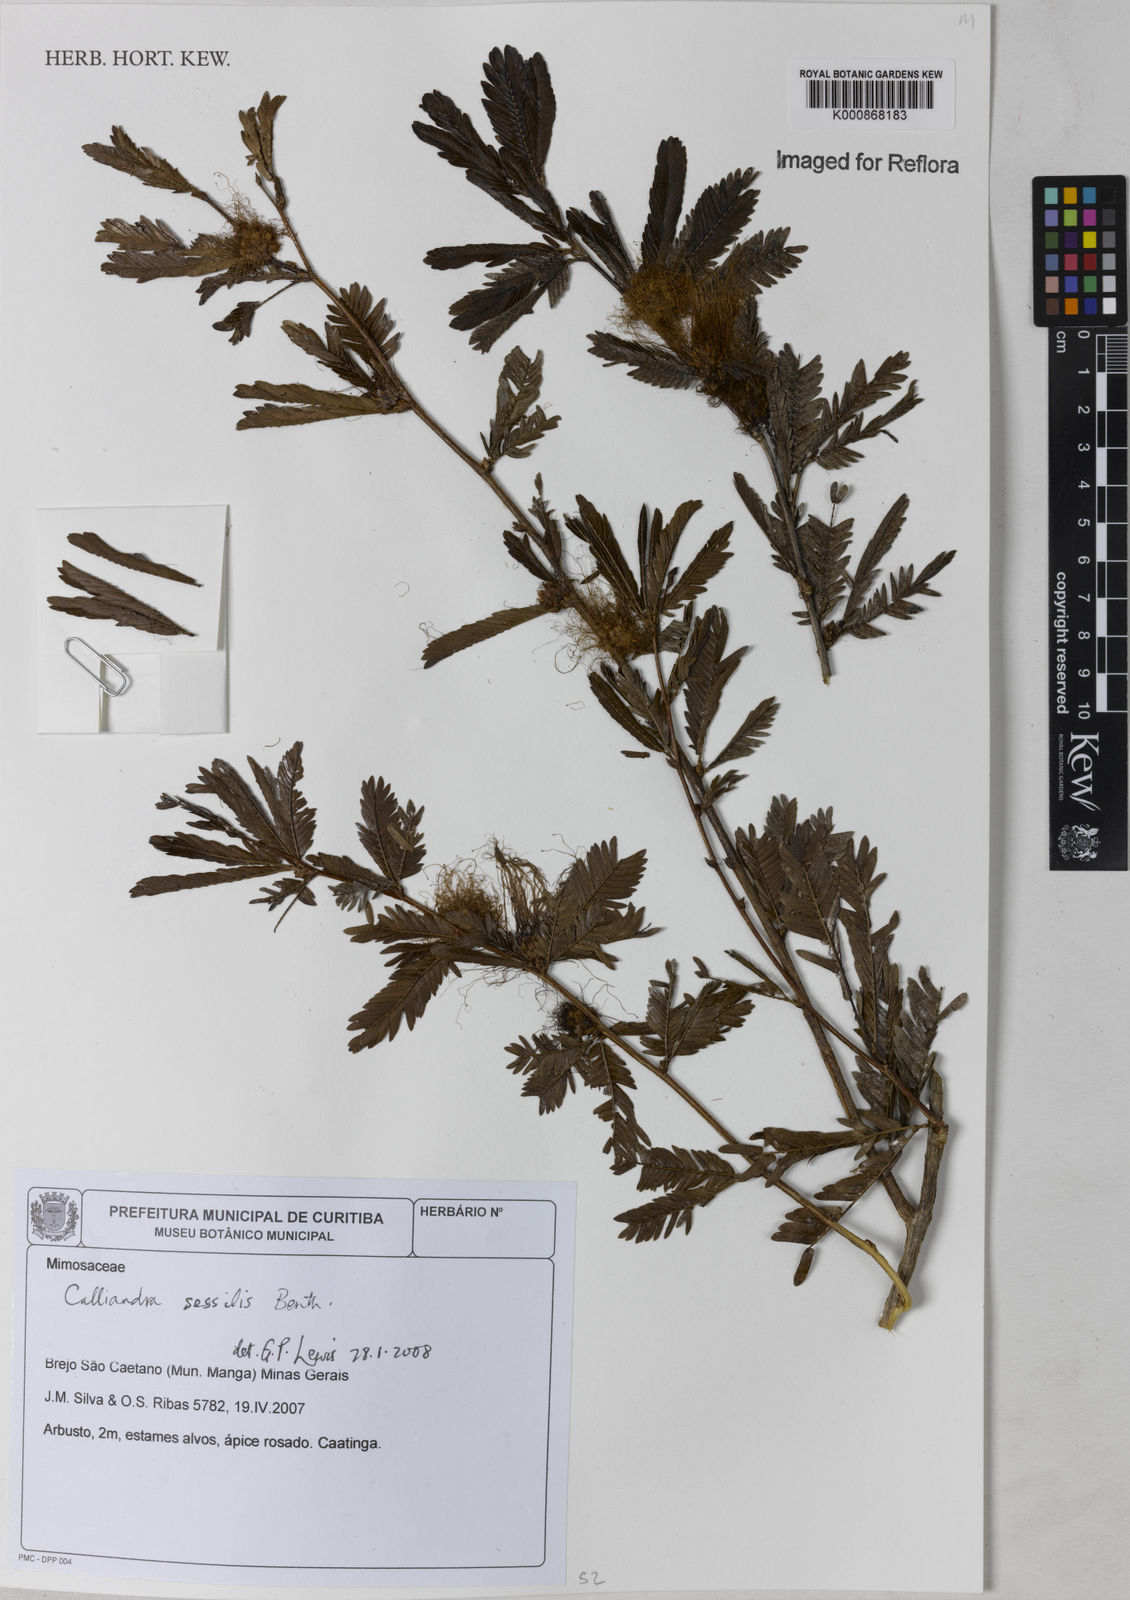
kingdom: Plantae
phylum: Tracheophyta
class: Magnoliopsida
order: Fabales
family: Fabaceae
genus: Calliandra
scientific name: Calliandra sessilis
